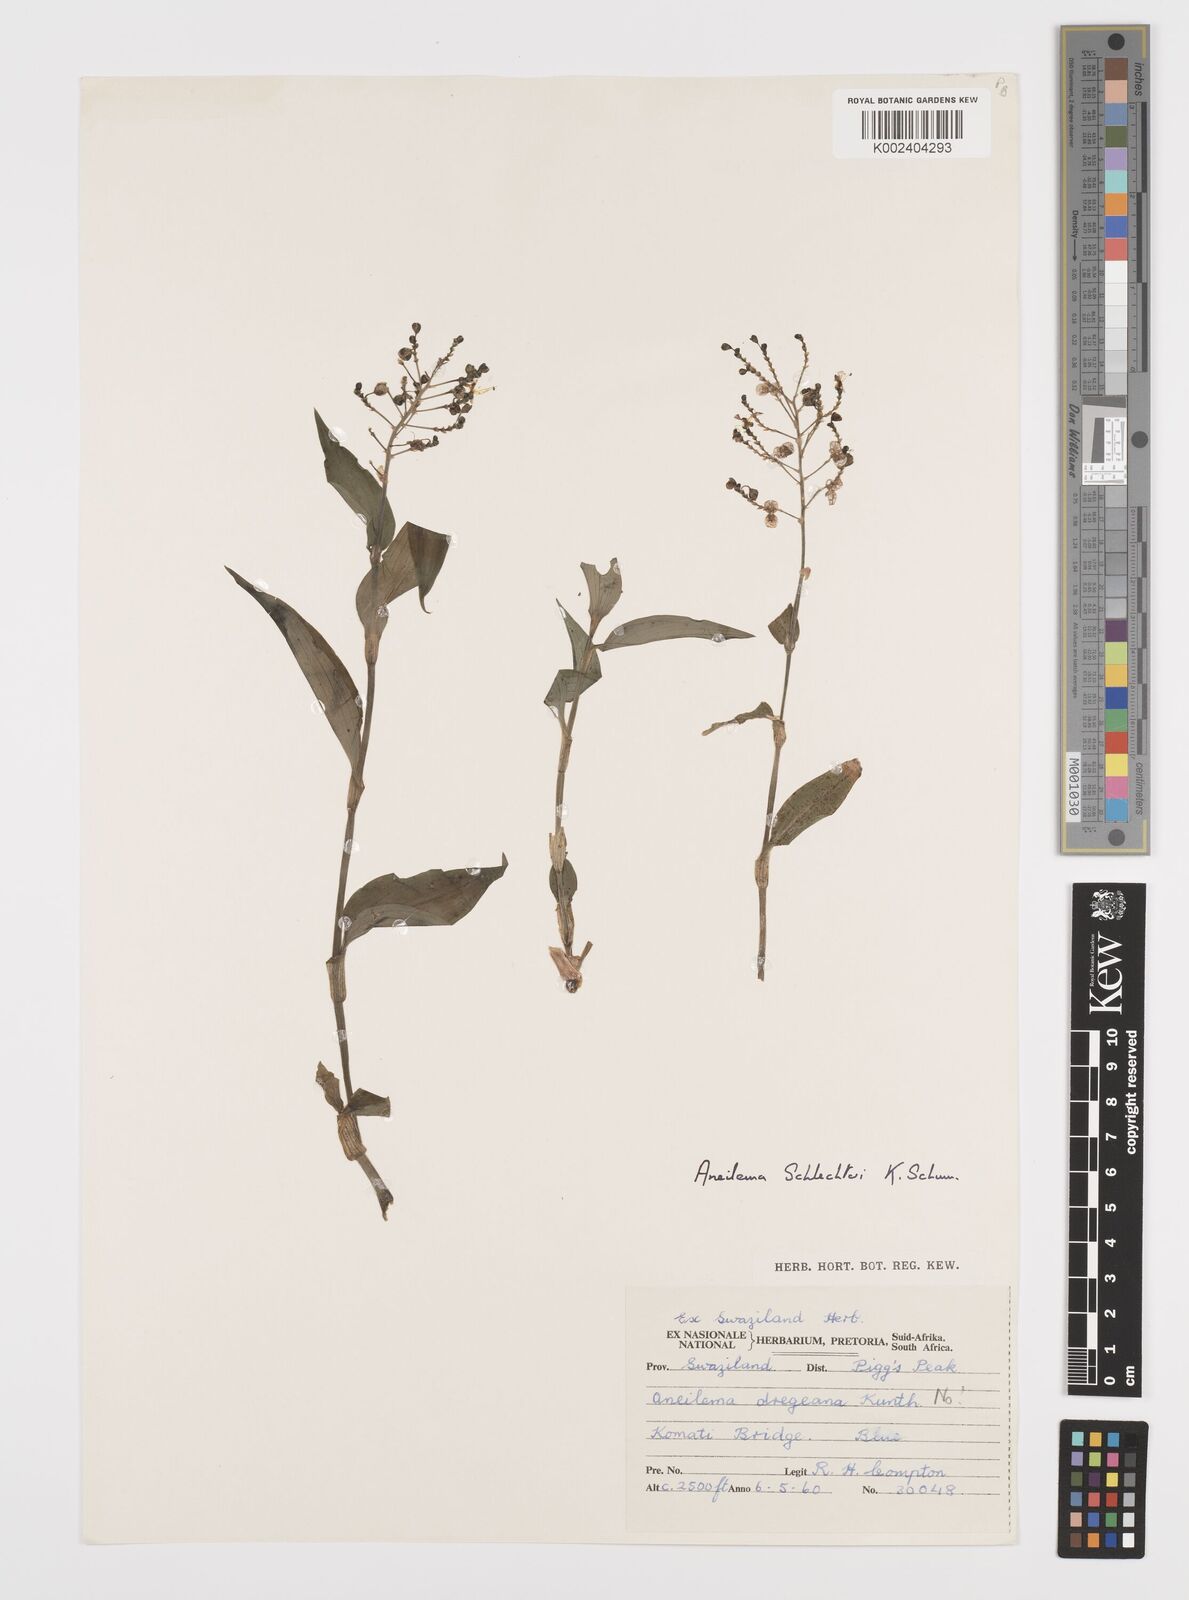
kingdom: Plantae
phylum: Tracheophyta
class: Liliopsida
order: Commelinales
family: Commelinaceae
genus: Aneilema
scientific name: Aneilema brunneospermum
